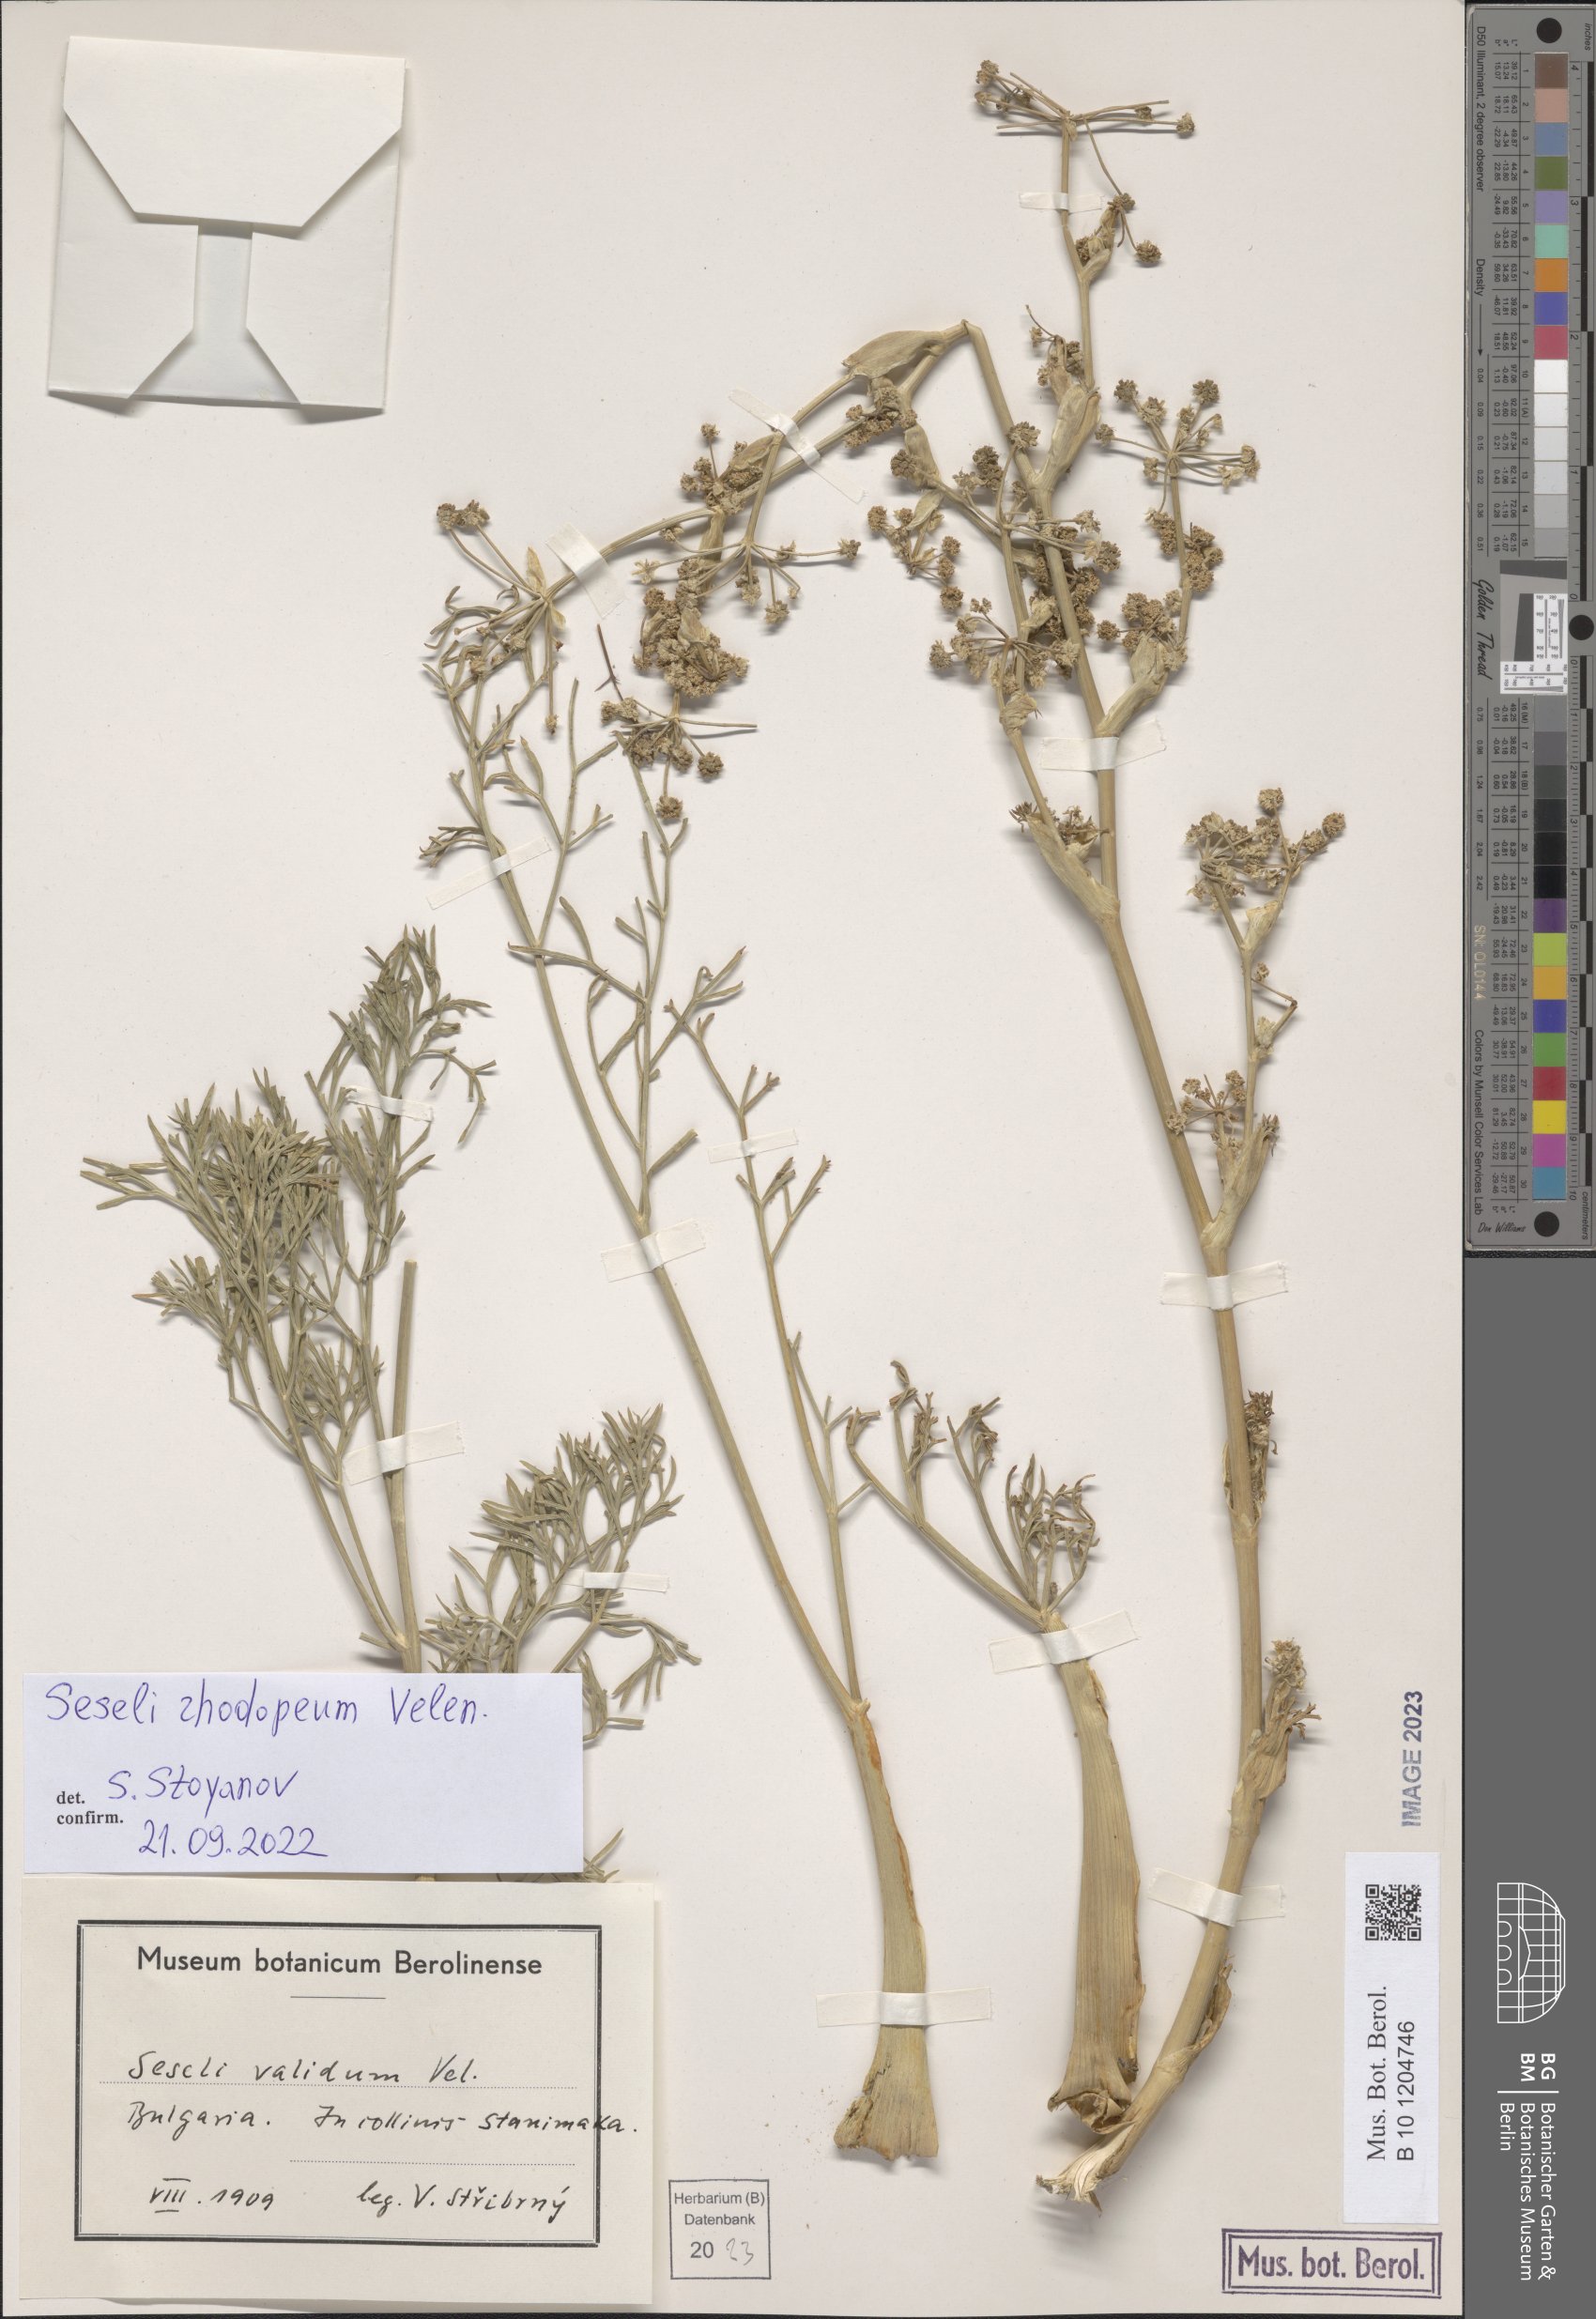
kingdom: Plantae
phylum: Tracheophyta
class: Magnoliopsida
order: Apiales
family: Apiaceae
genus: Seseli
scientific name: Seseli rhodopeum
